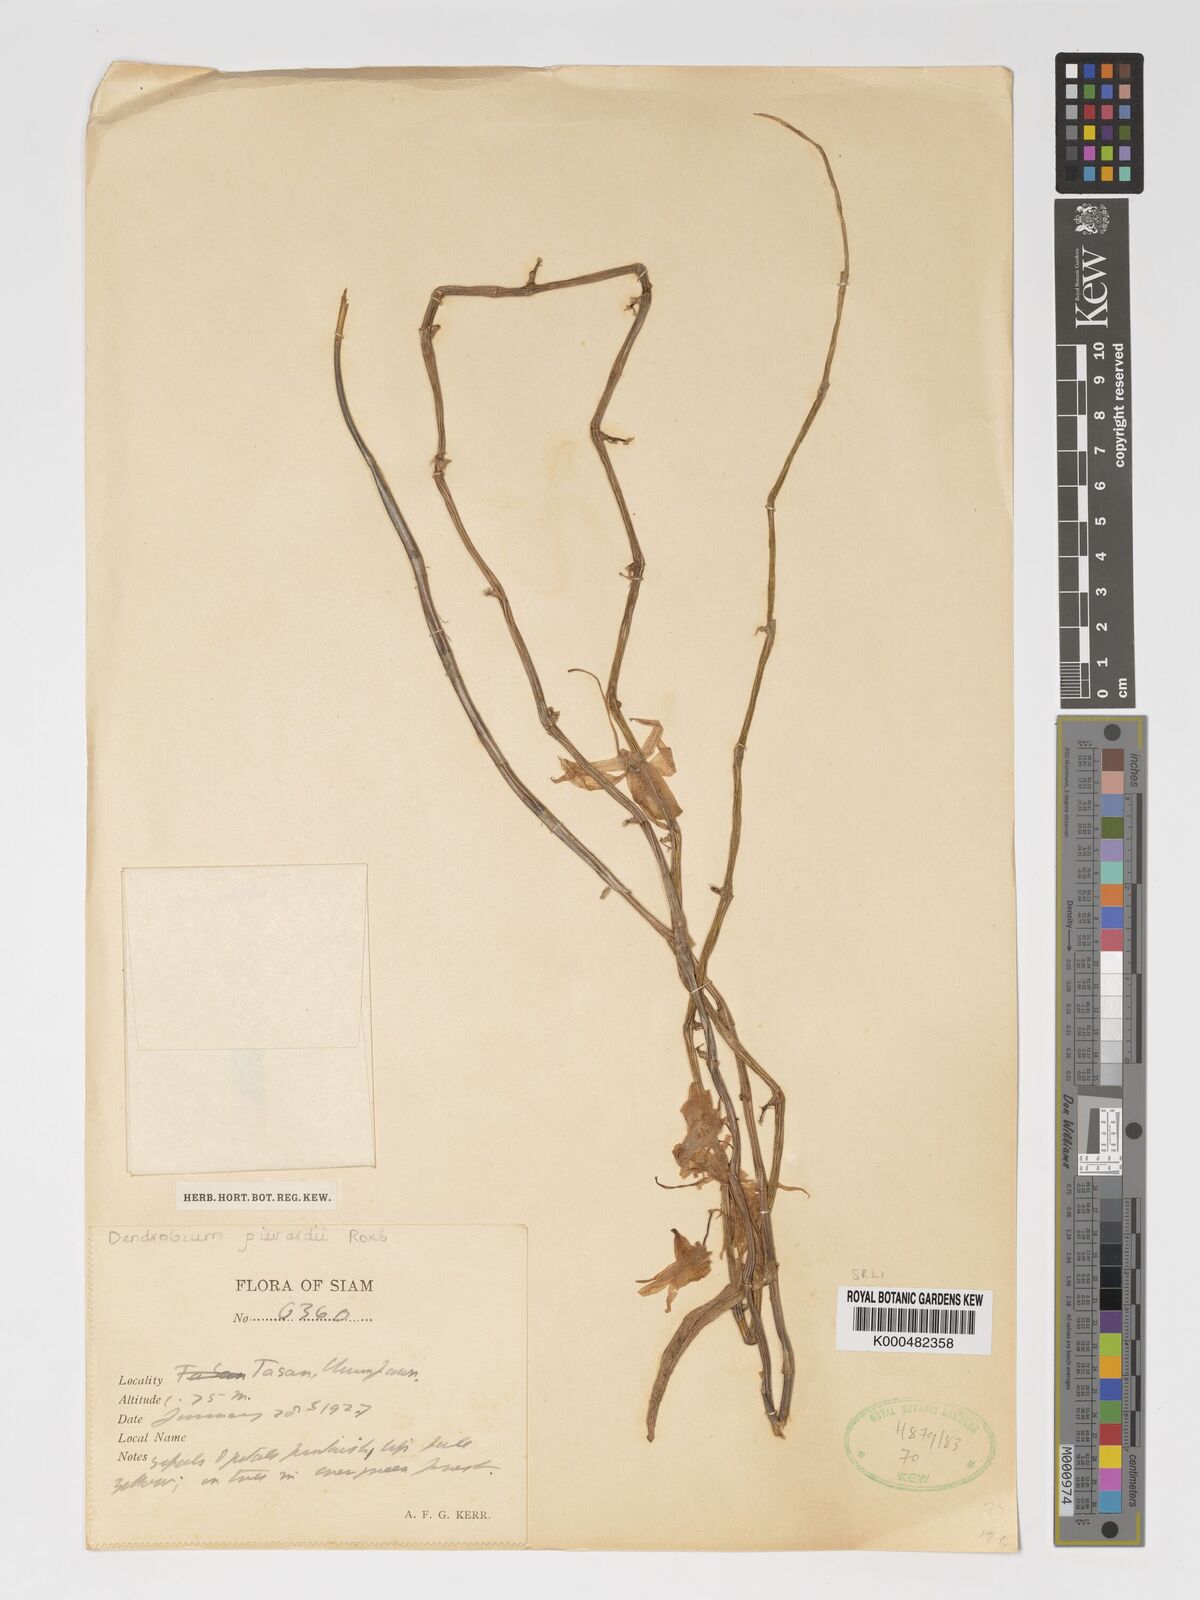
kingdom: Plantae
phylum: Tracheophyta
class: Liliopsida
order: Asparagales
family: Orchidaceae
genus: Dendrobium
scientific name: Dendrobium macrostachyum
